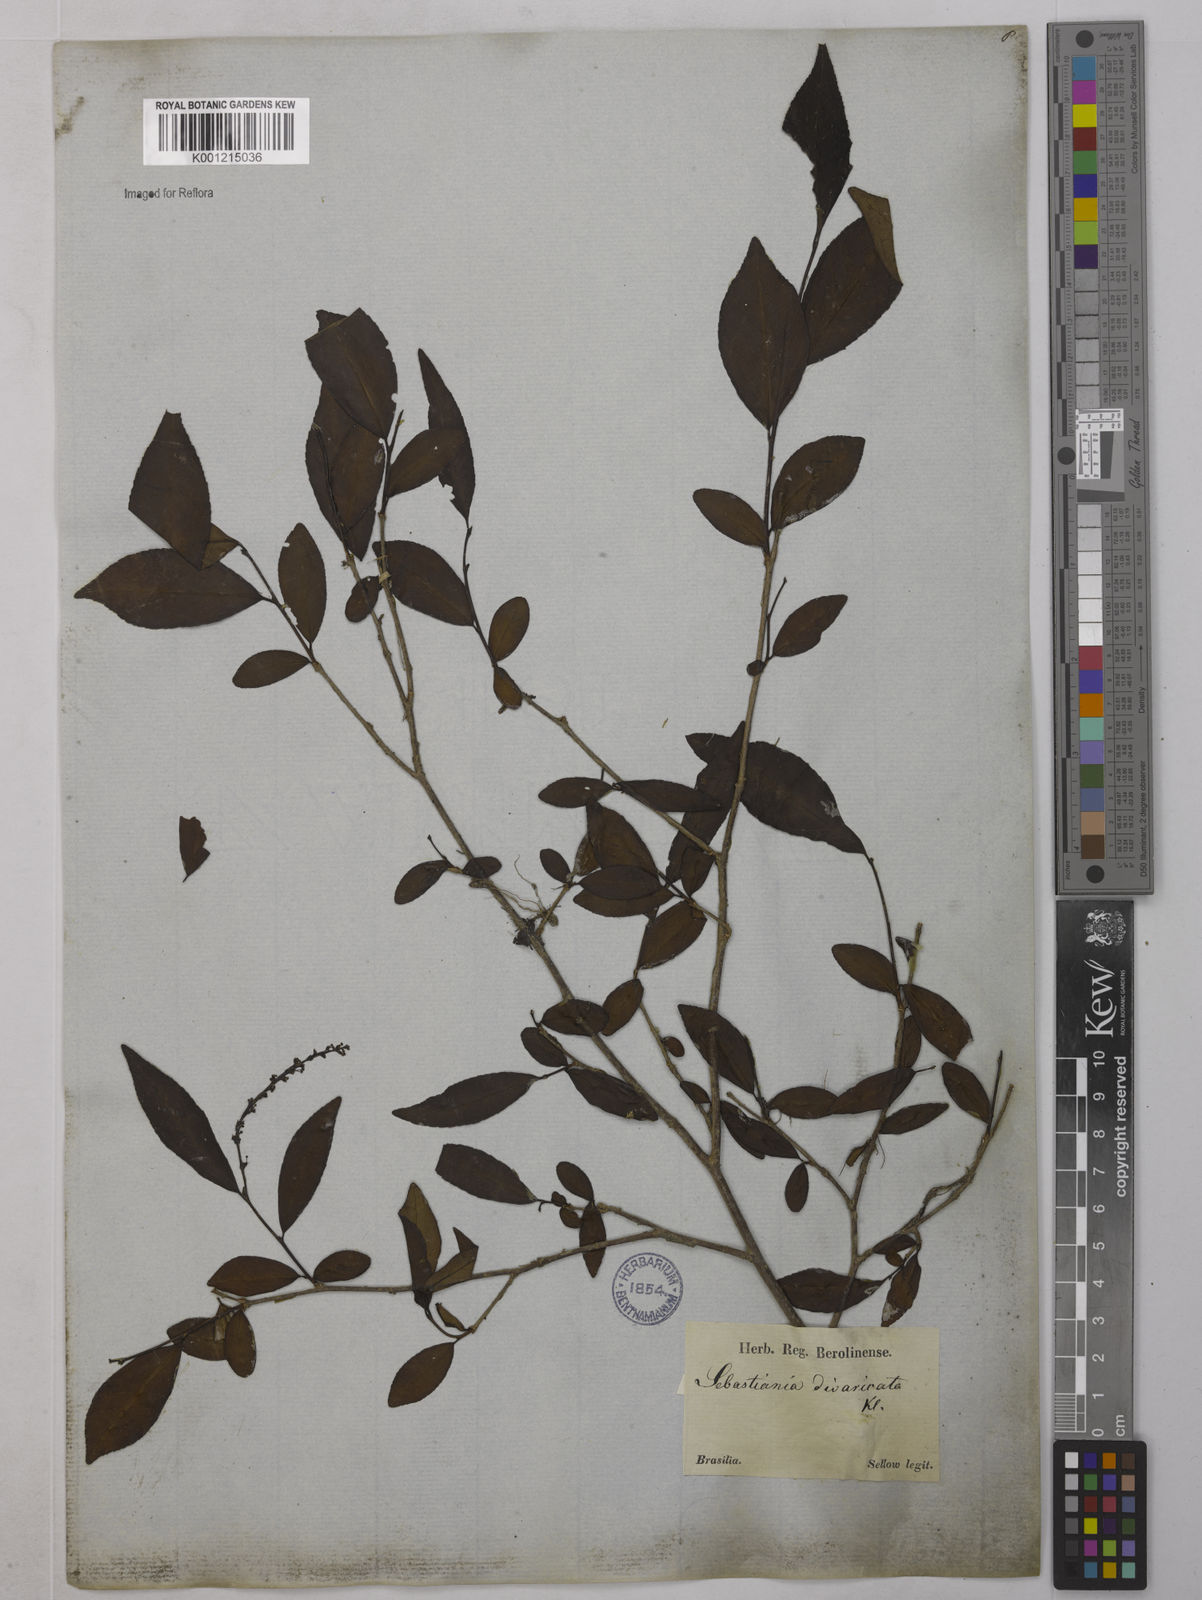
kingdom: Plantae
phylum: Tracheophyta
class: Magnoliopsida
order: Malpighiales
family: Euphorbiaceae
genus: Sebastiania
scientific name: Sebastiania brasiliensis
